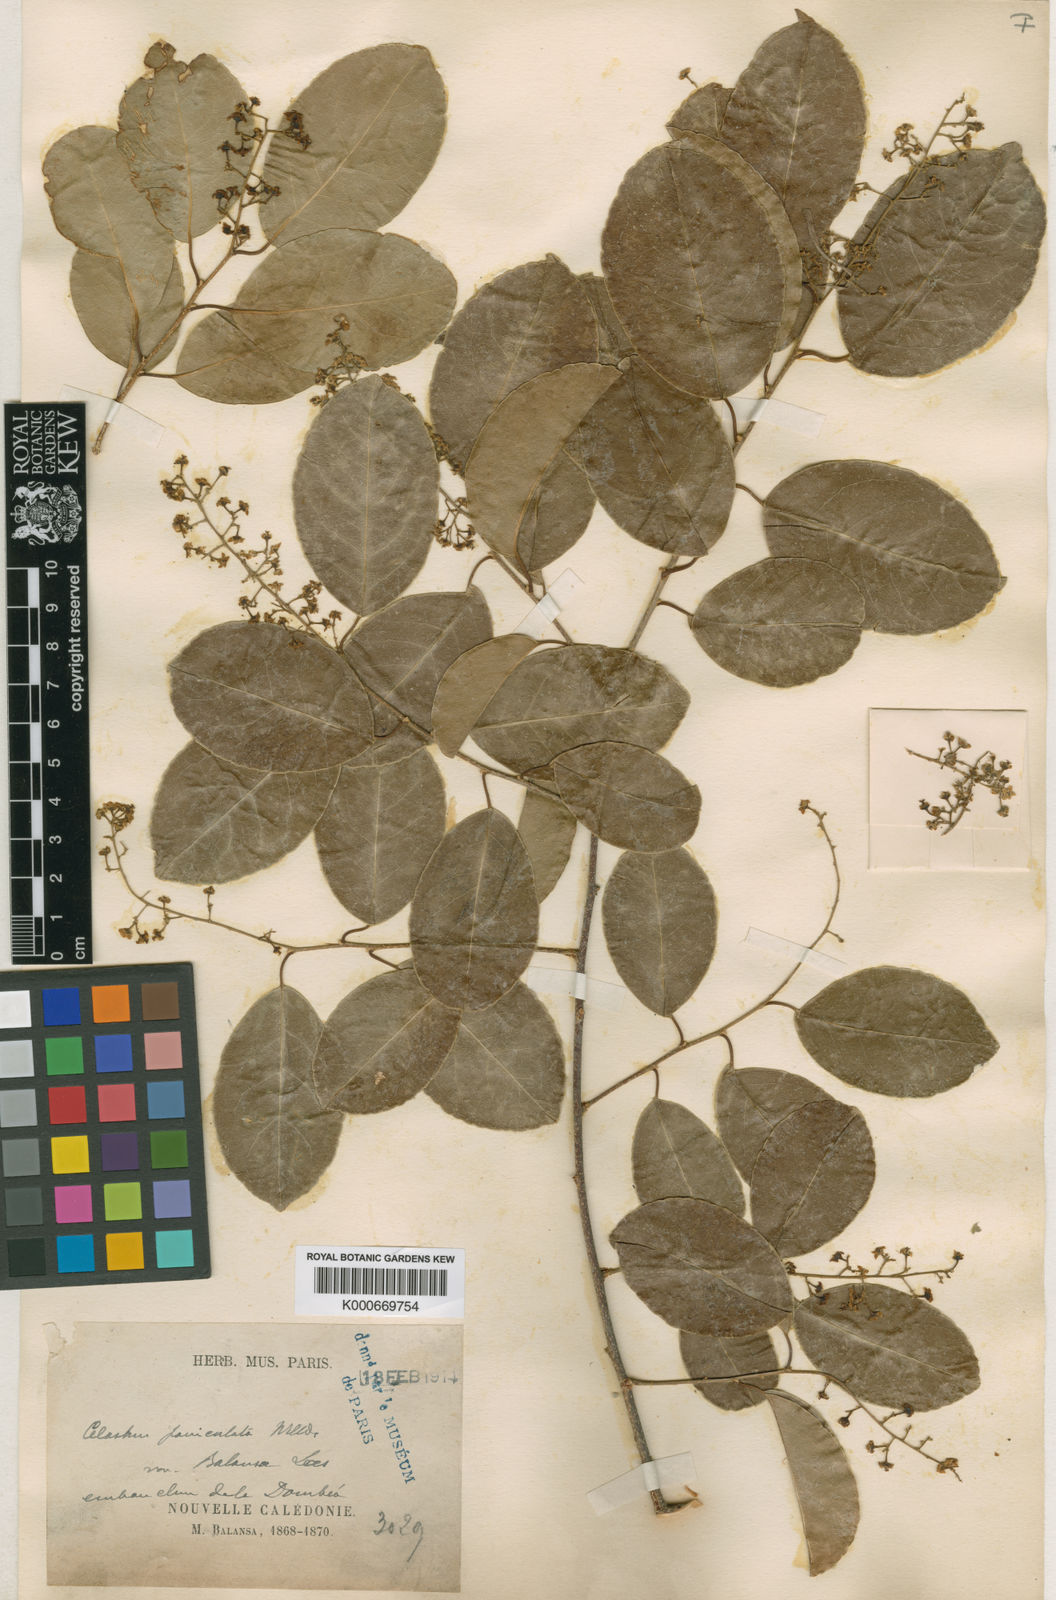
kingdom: Plantae
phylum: Tracheophyta
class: Magnoliopsida
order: Celastrales
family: Celastraceae
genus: Celastrus
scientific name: Celastrus paniculatus
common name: Oriental bittersweet; staff vine
